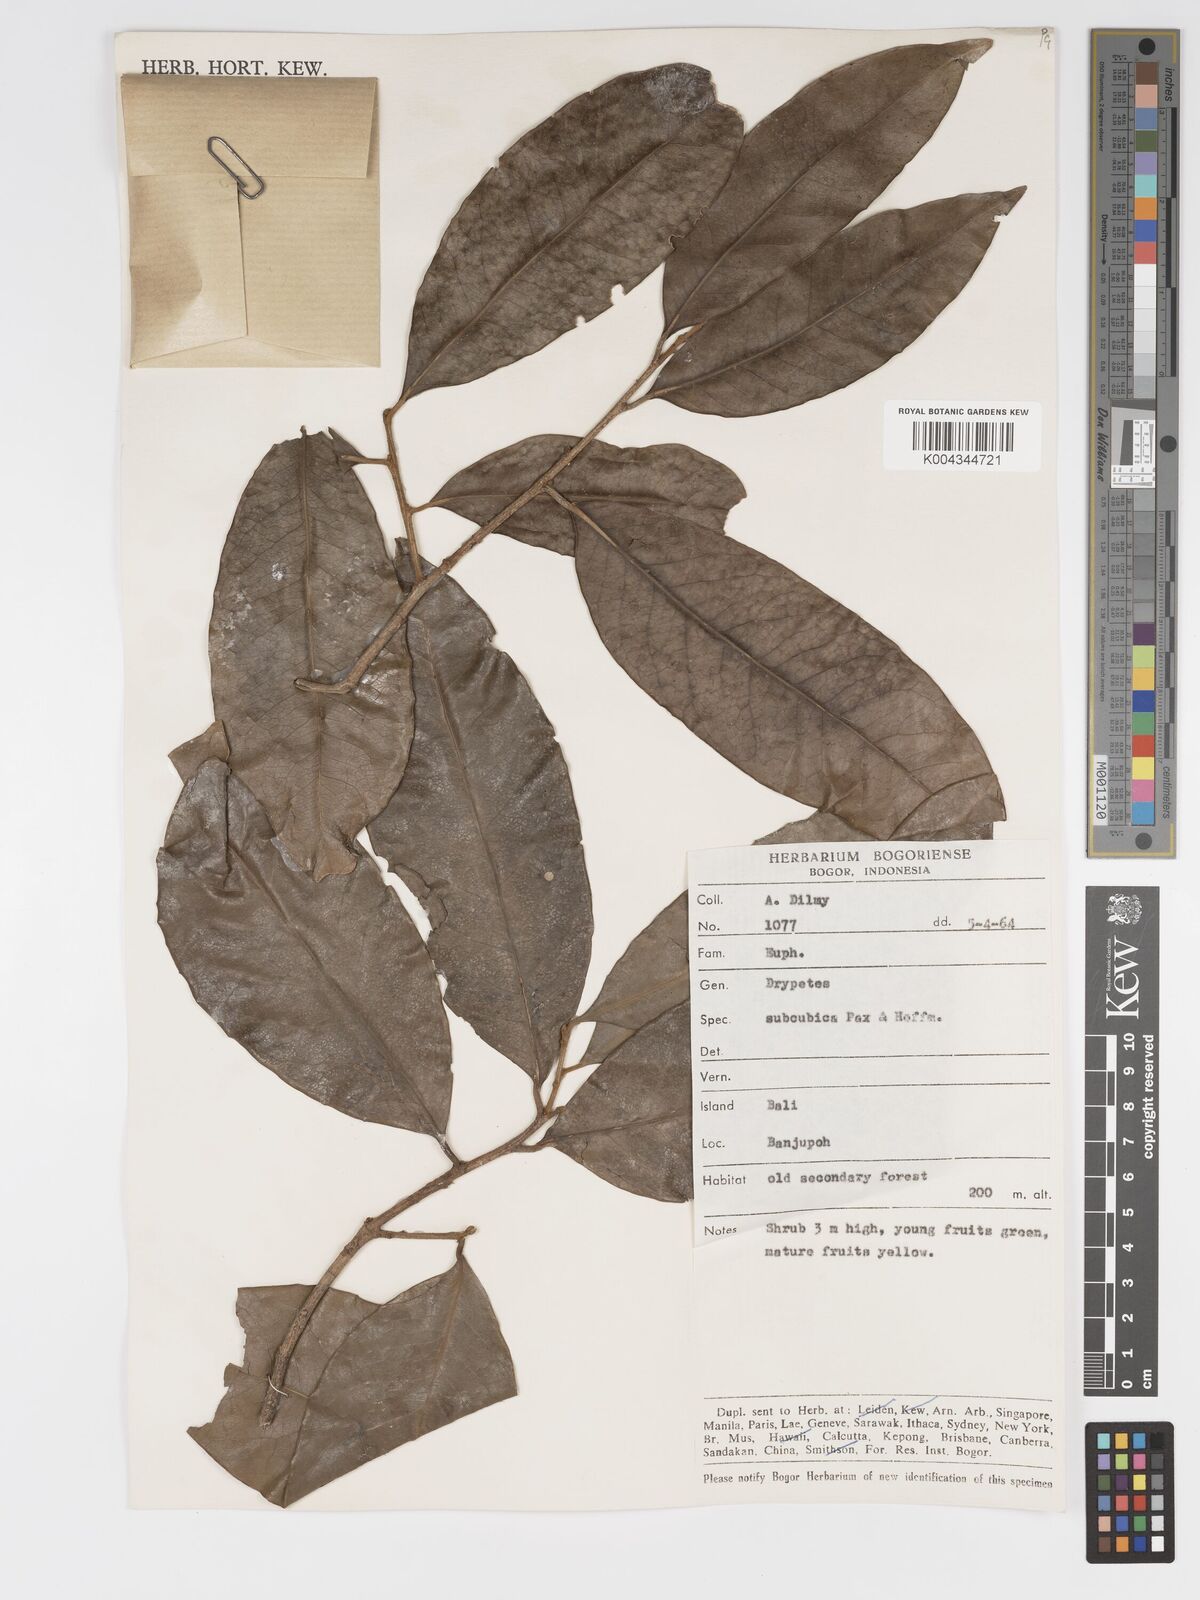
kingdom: Plantae
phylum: Tracheophyta
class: Magnoliopsida
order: Malpighiales
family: Putranjivaceae
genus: Drypetes
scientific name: Drypetes subcubica
